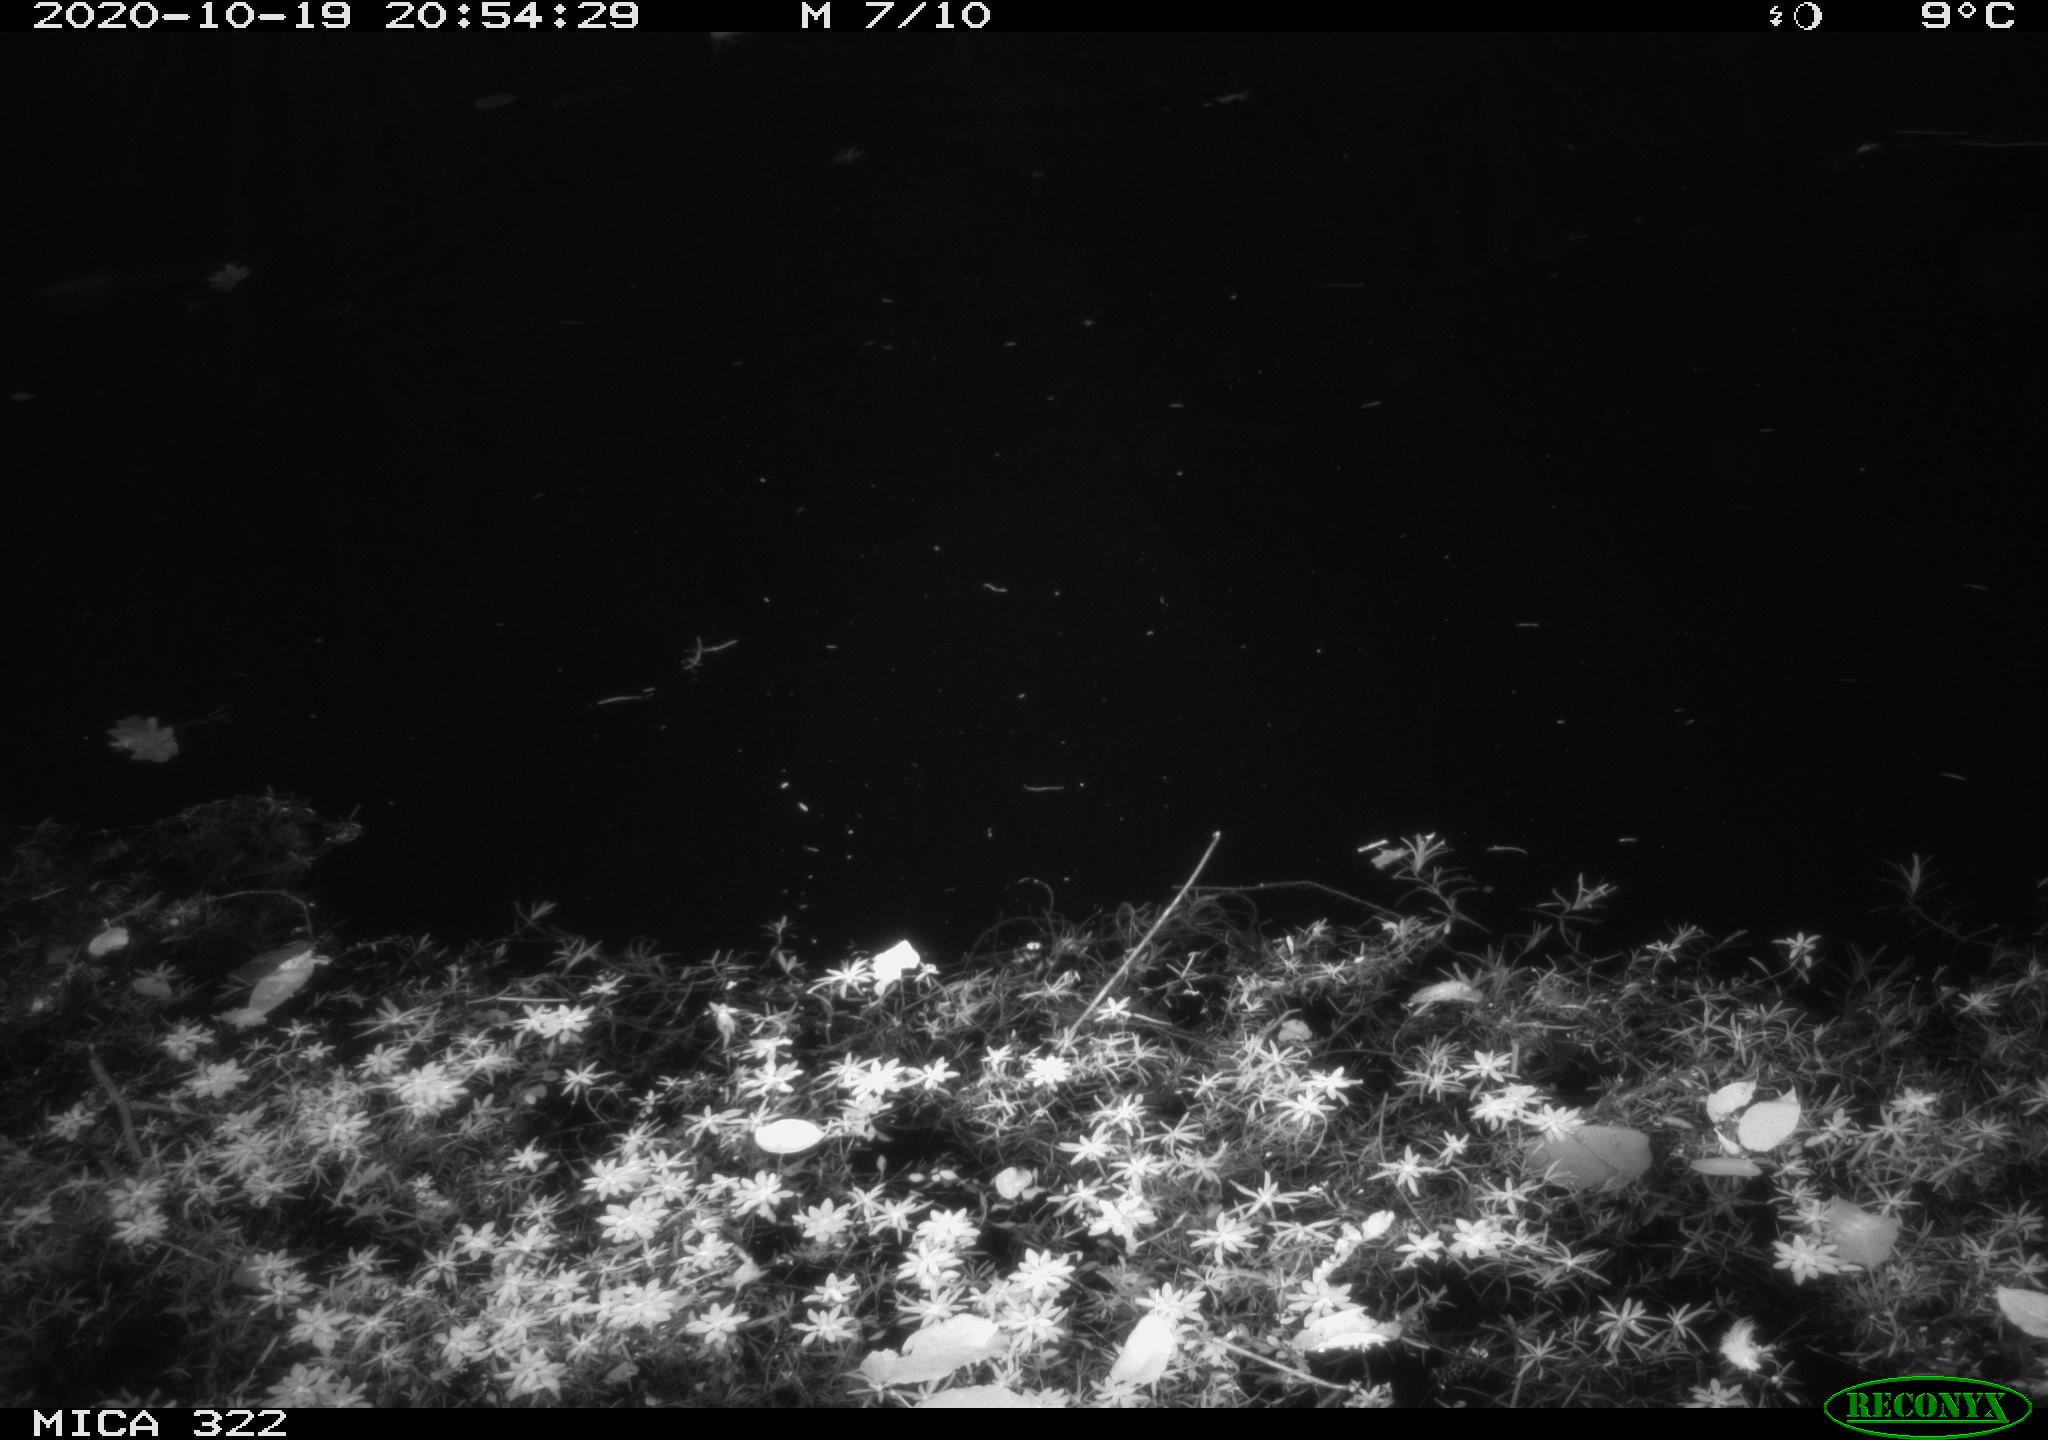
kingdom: Animalia
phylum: Chordata
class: Mammalia
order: Rodentia
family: Muridae
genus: Rattus
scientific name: Rattus norvegicus
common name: Brown rat
